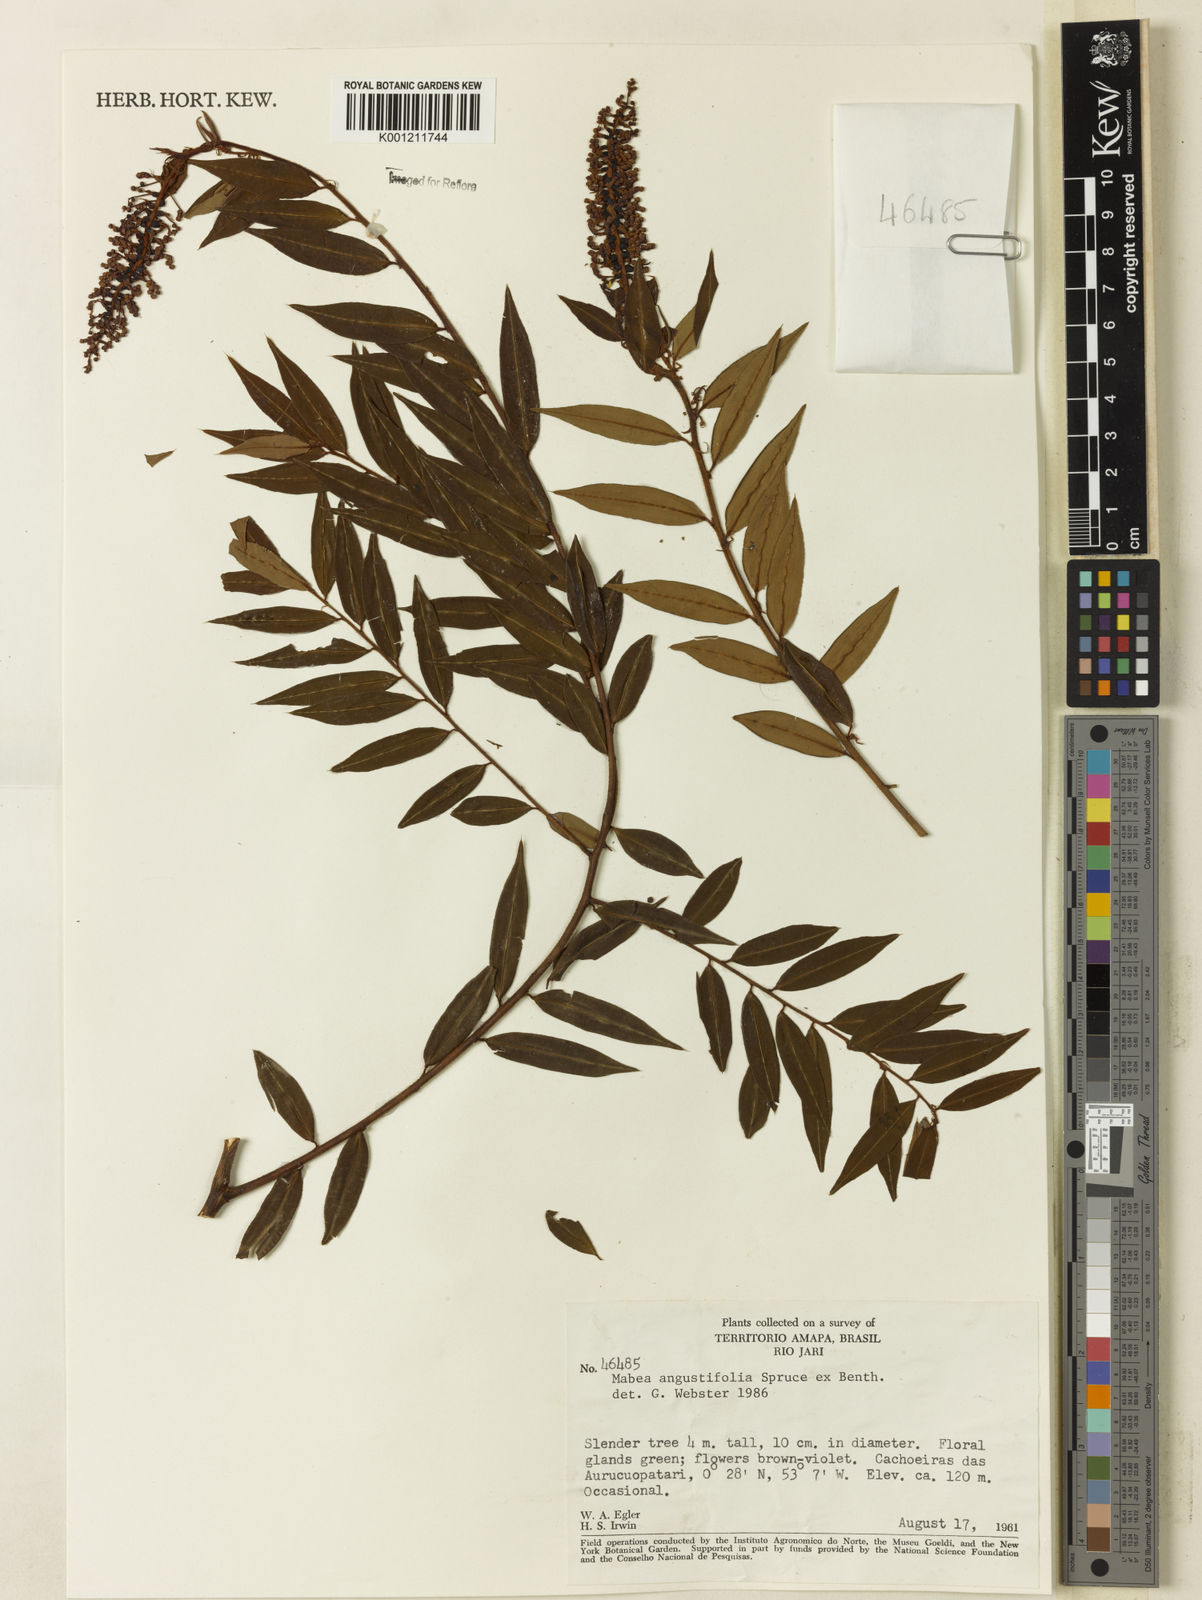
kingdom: Plantae
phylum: Tracheophyta
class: Magnoliopsida
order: Malpighiales
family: Euphorbiaceae
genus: Mabea
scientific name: Mabea angustifolia
